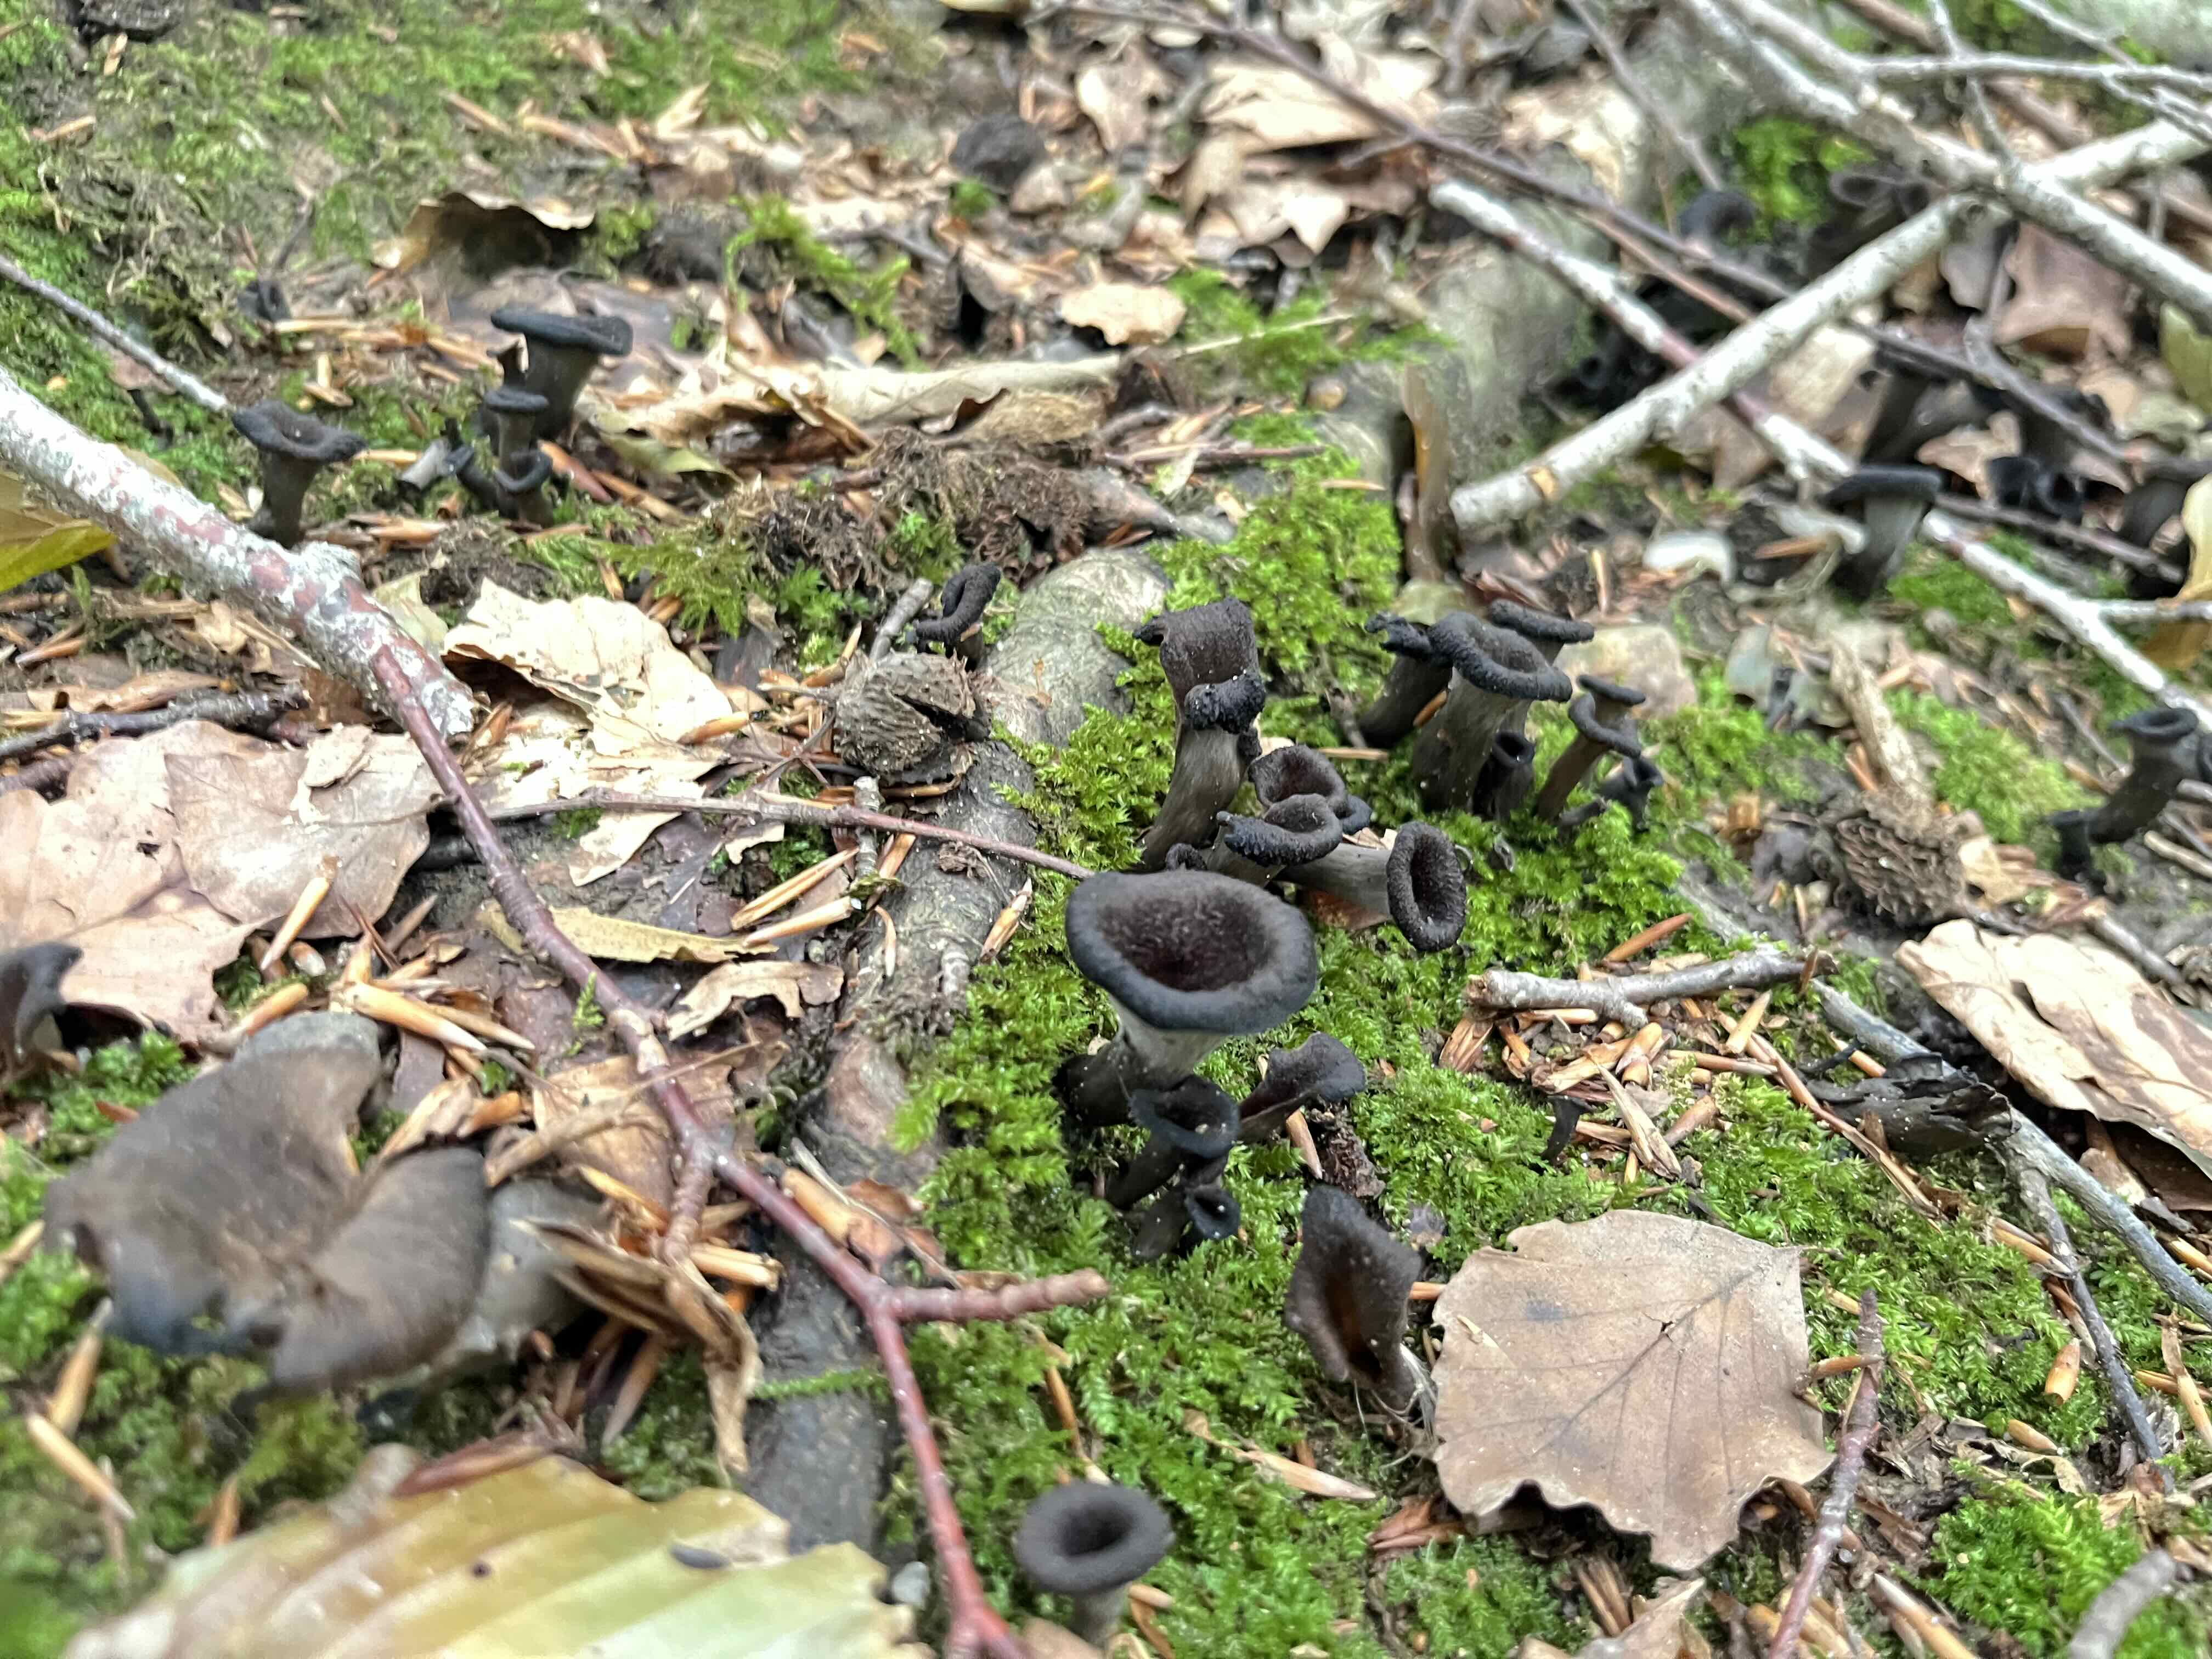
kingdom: Fungi
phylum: Basidiomycota
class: Agaricomycetes
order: Cantharellales
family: Hydnaceae
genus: Craterellus
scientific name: Craterellus cornucopioides
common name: trompetsvamp
